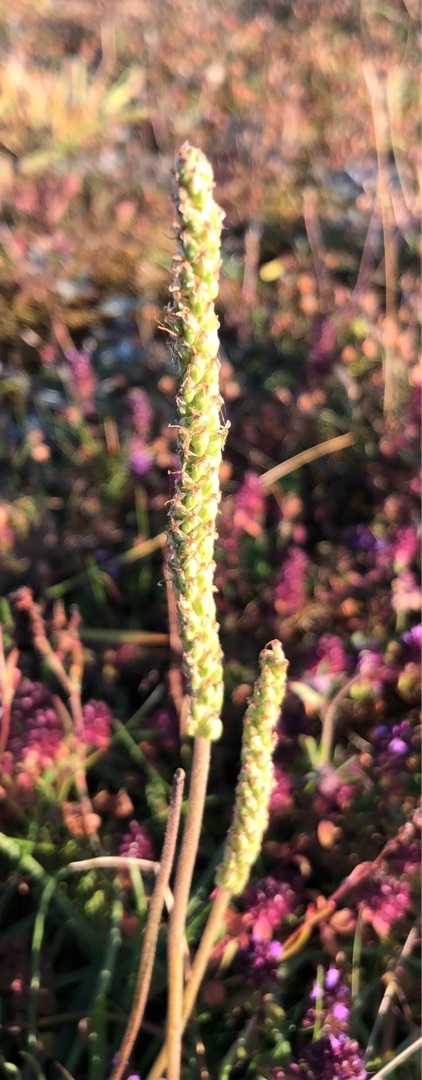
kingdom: Plantae
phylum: Tracheophyta
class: Magnoliopsida
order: Lamiales
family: Plantaginaceae
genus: Plantago
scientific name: Plantago maritima
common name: Strand-vejbred
